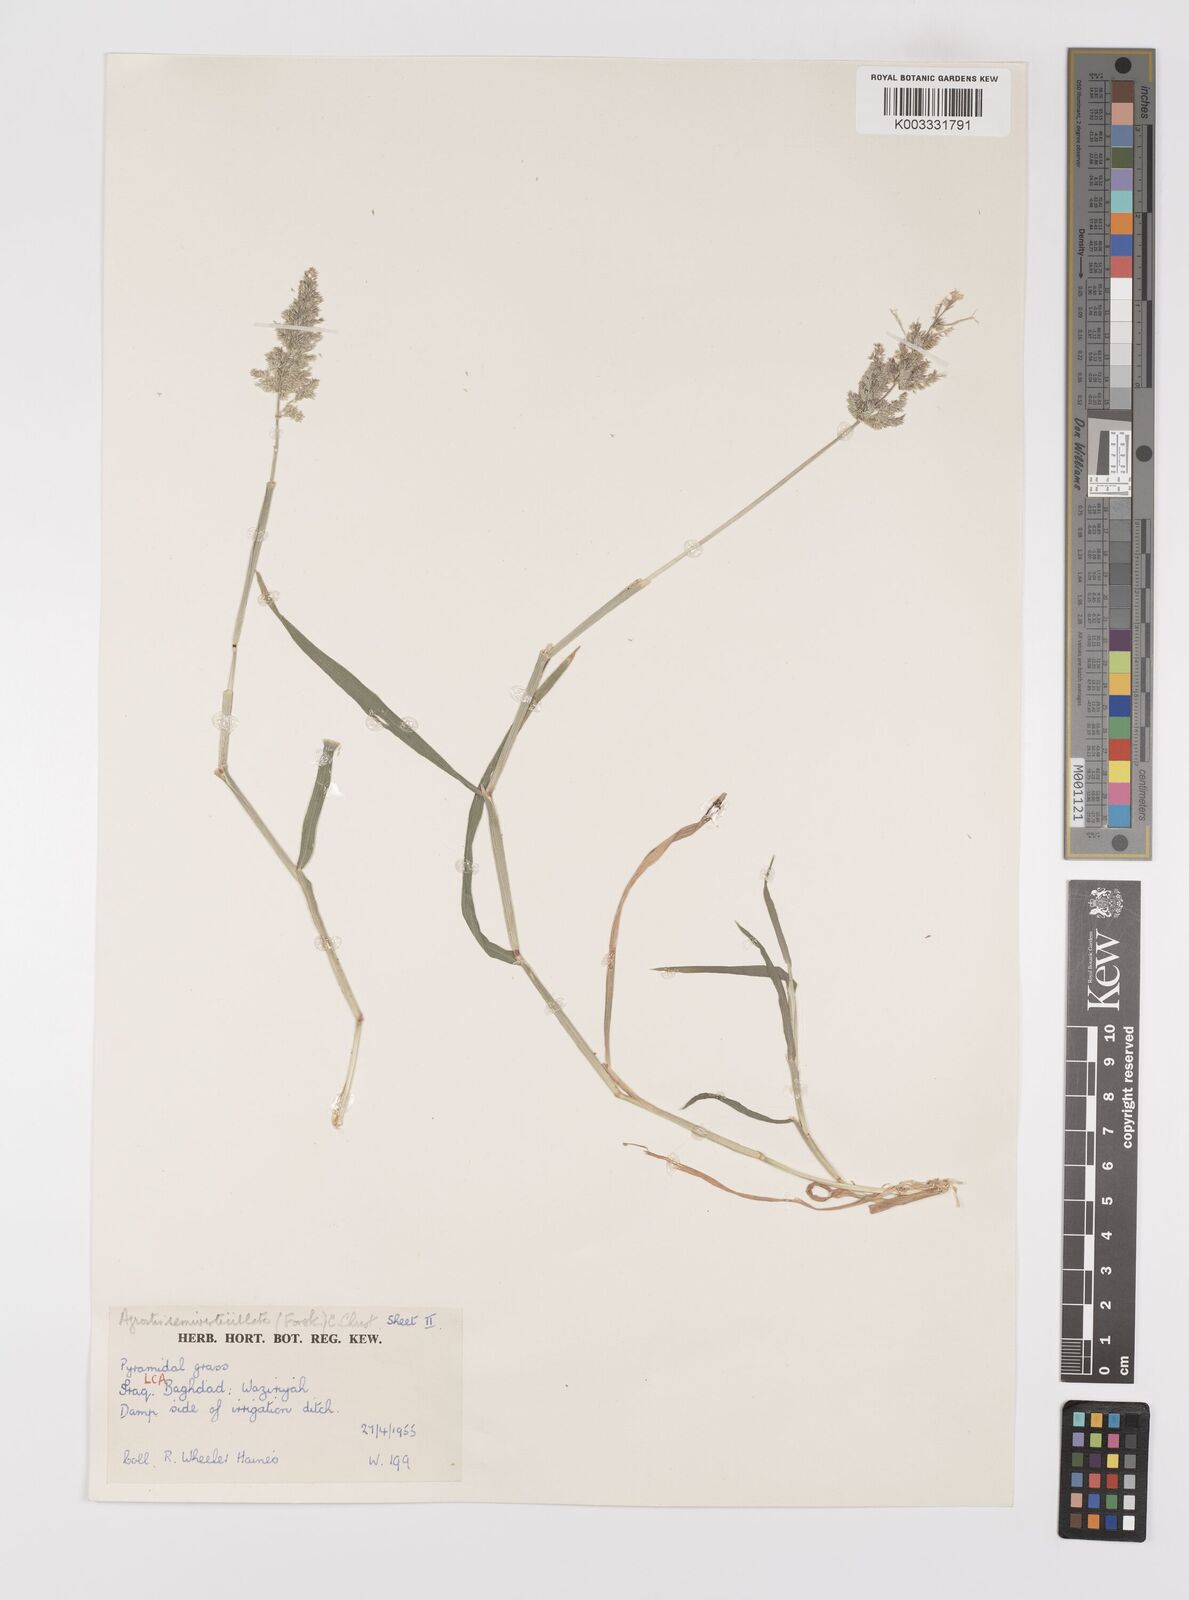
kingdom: Plantae
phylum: Tracheophyta
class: Liliopsida
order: Poales
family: Poaceae
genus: Polypogon
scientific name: Polypogon viridis
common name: Water bent
